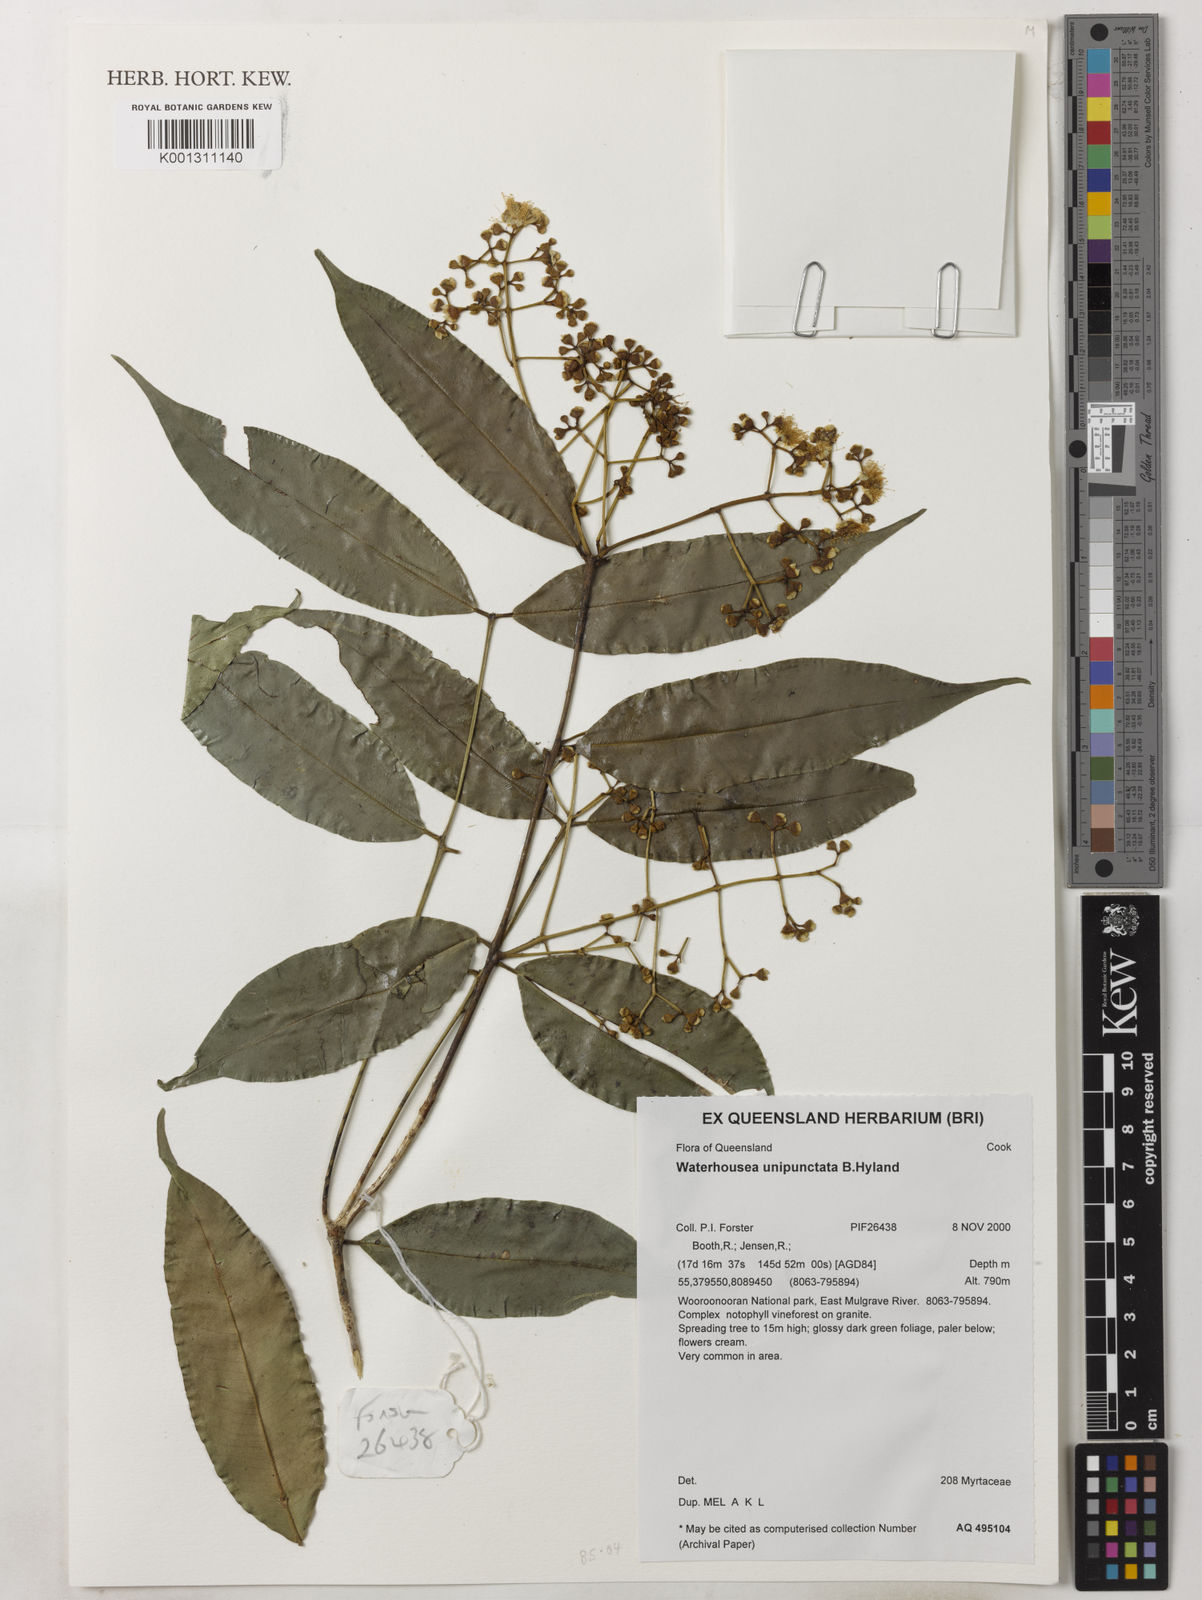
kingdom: Plantae
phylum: Tracheophyta
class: Magnoliopsida
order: Myrtales
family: Myrtaceae
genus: Syzygium
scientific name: Syzygium unipunctatum
